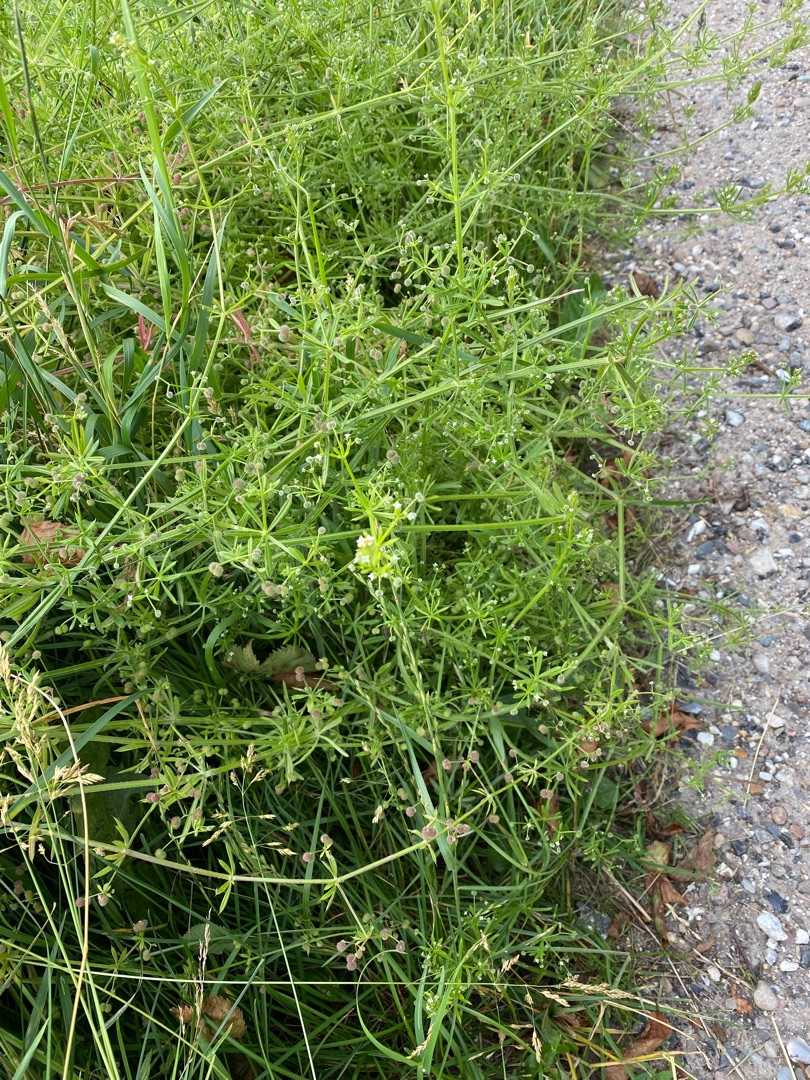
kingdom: Plantae
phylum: Tracheophyta
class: Magnoliopsida
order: Gentianales
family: Rubiaceae
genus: Galium
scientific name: Galium aparine
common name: Burre-snerre
